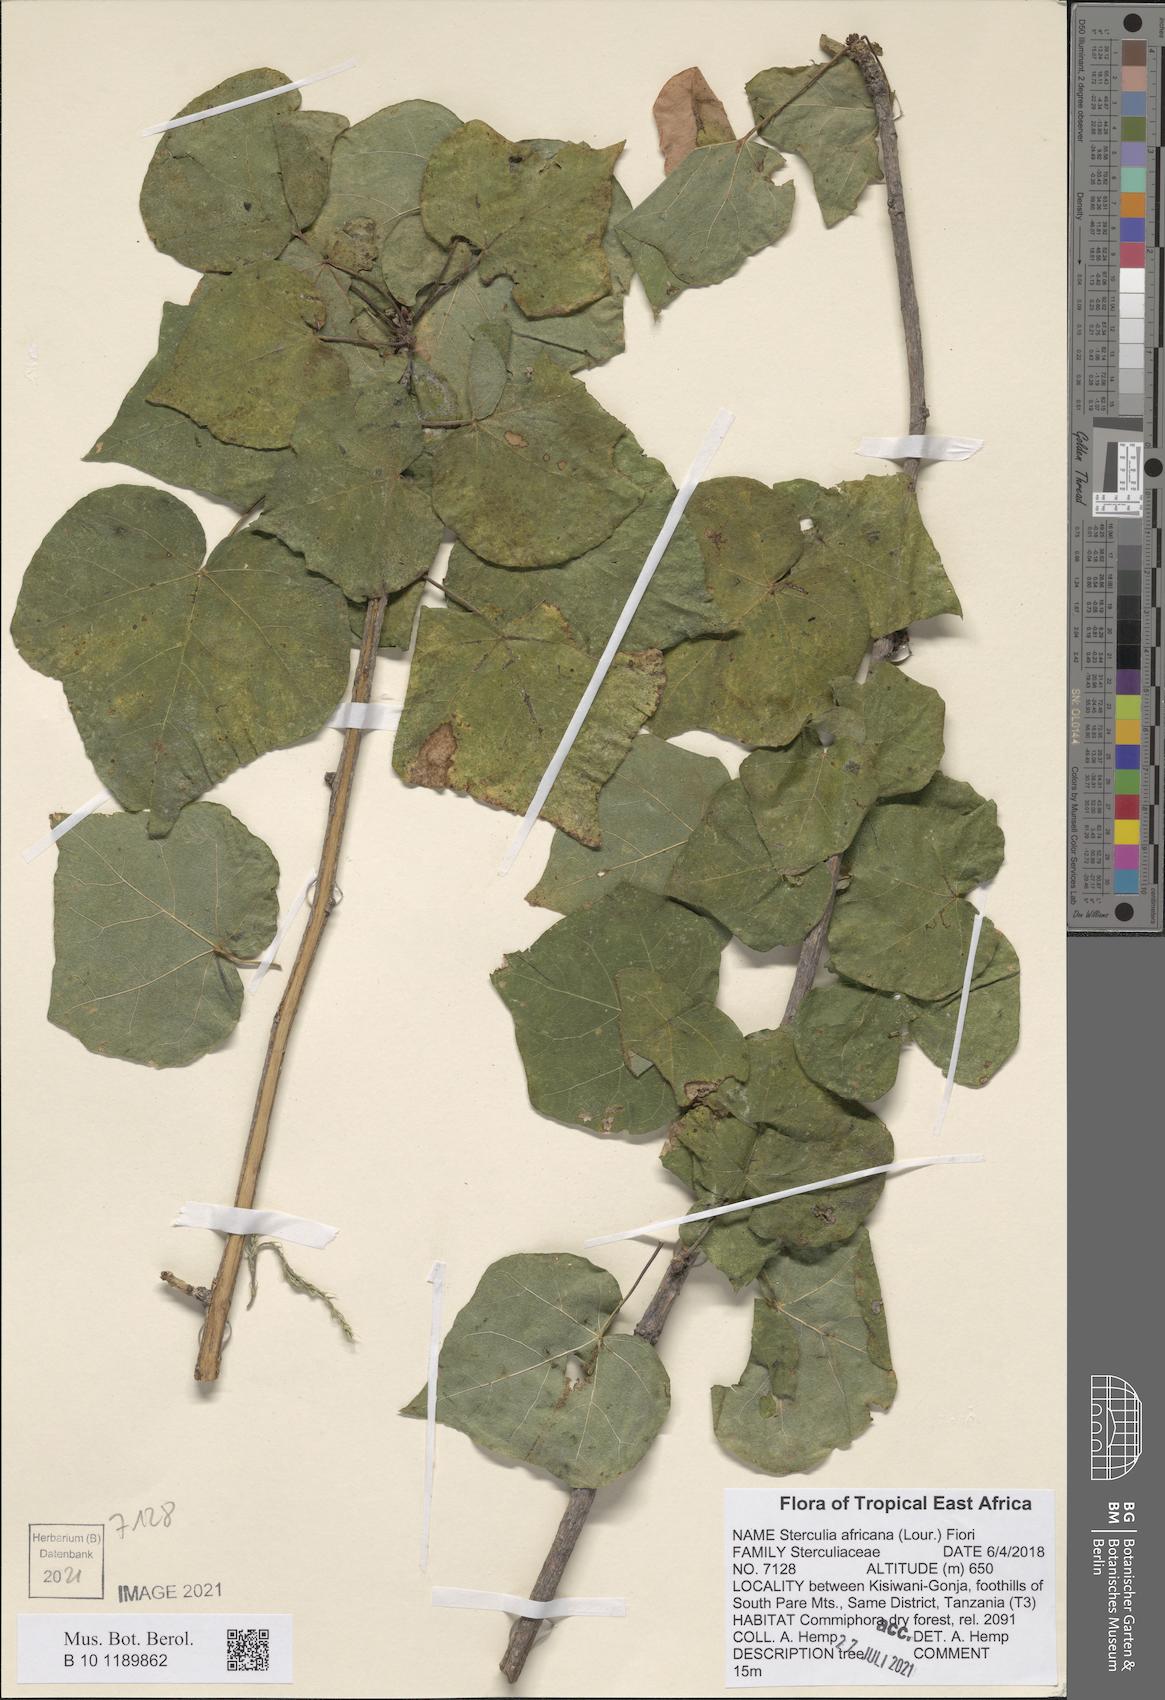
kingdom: Plantae
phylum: Tracheophyta
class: Magnoliopsida
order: Malvales
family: Malvaceae
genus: Sterculia
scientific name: Sterculia africana
